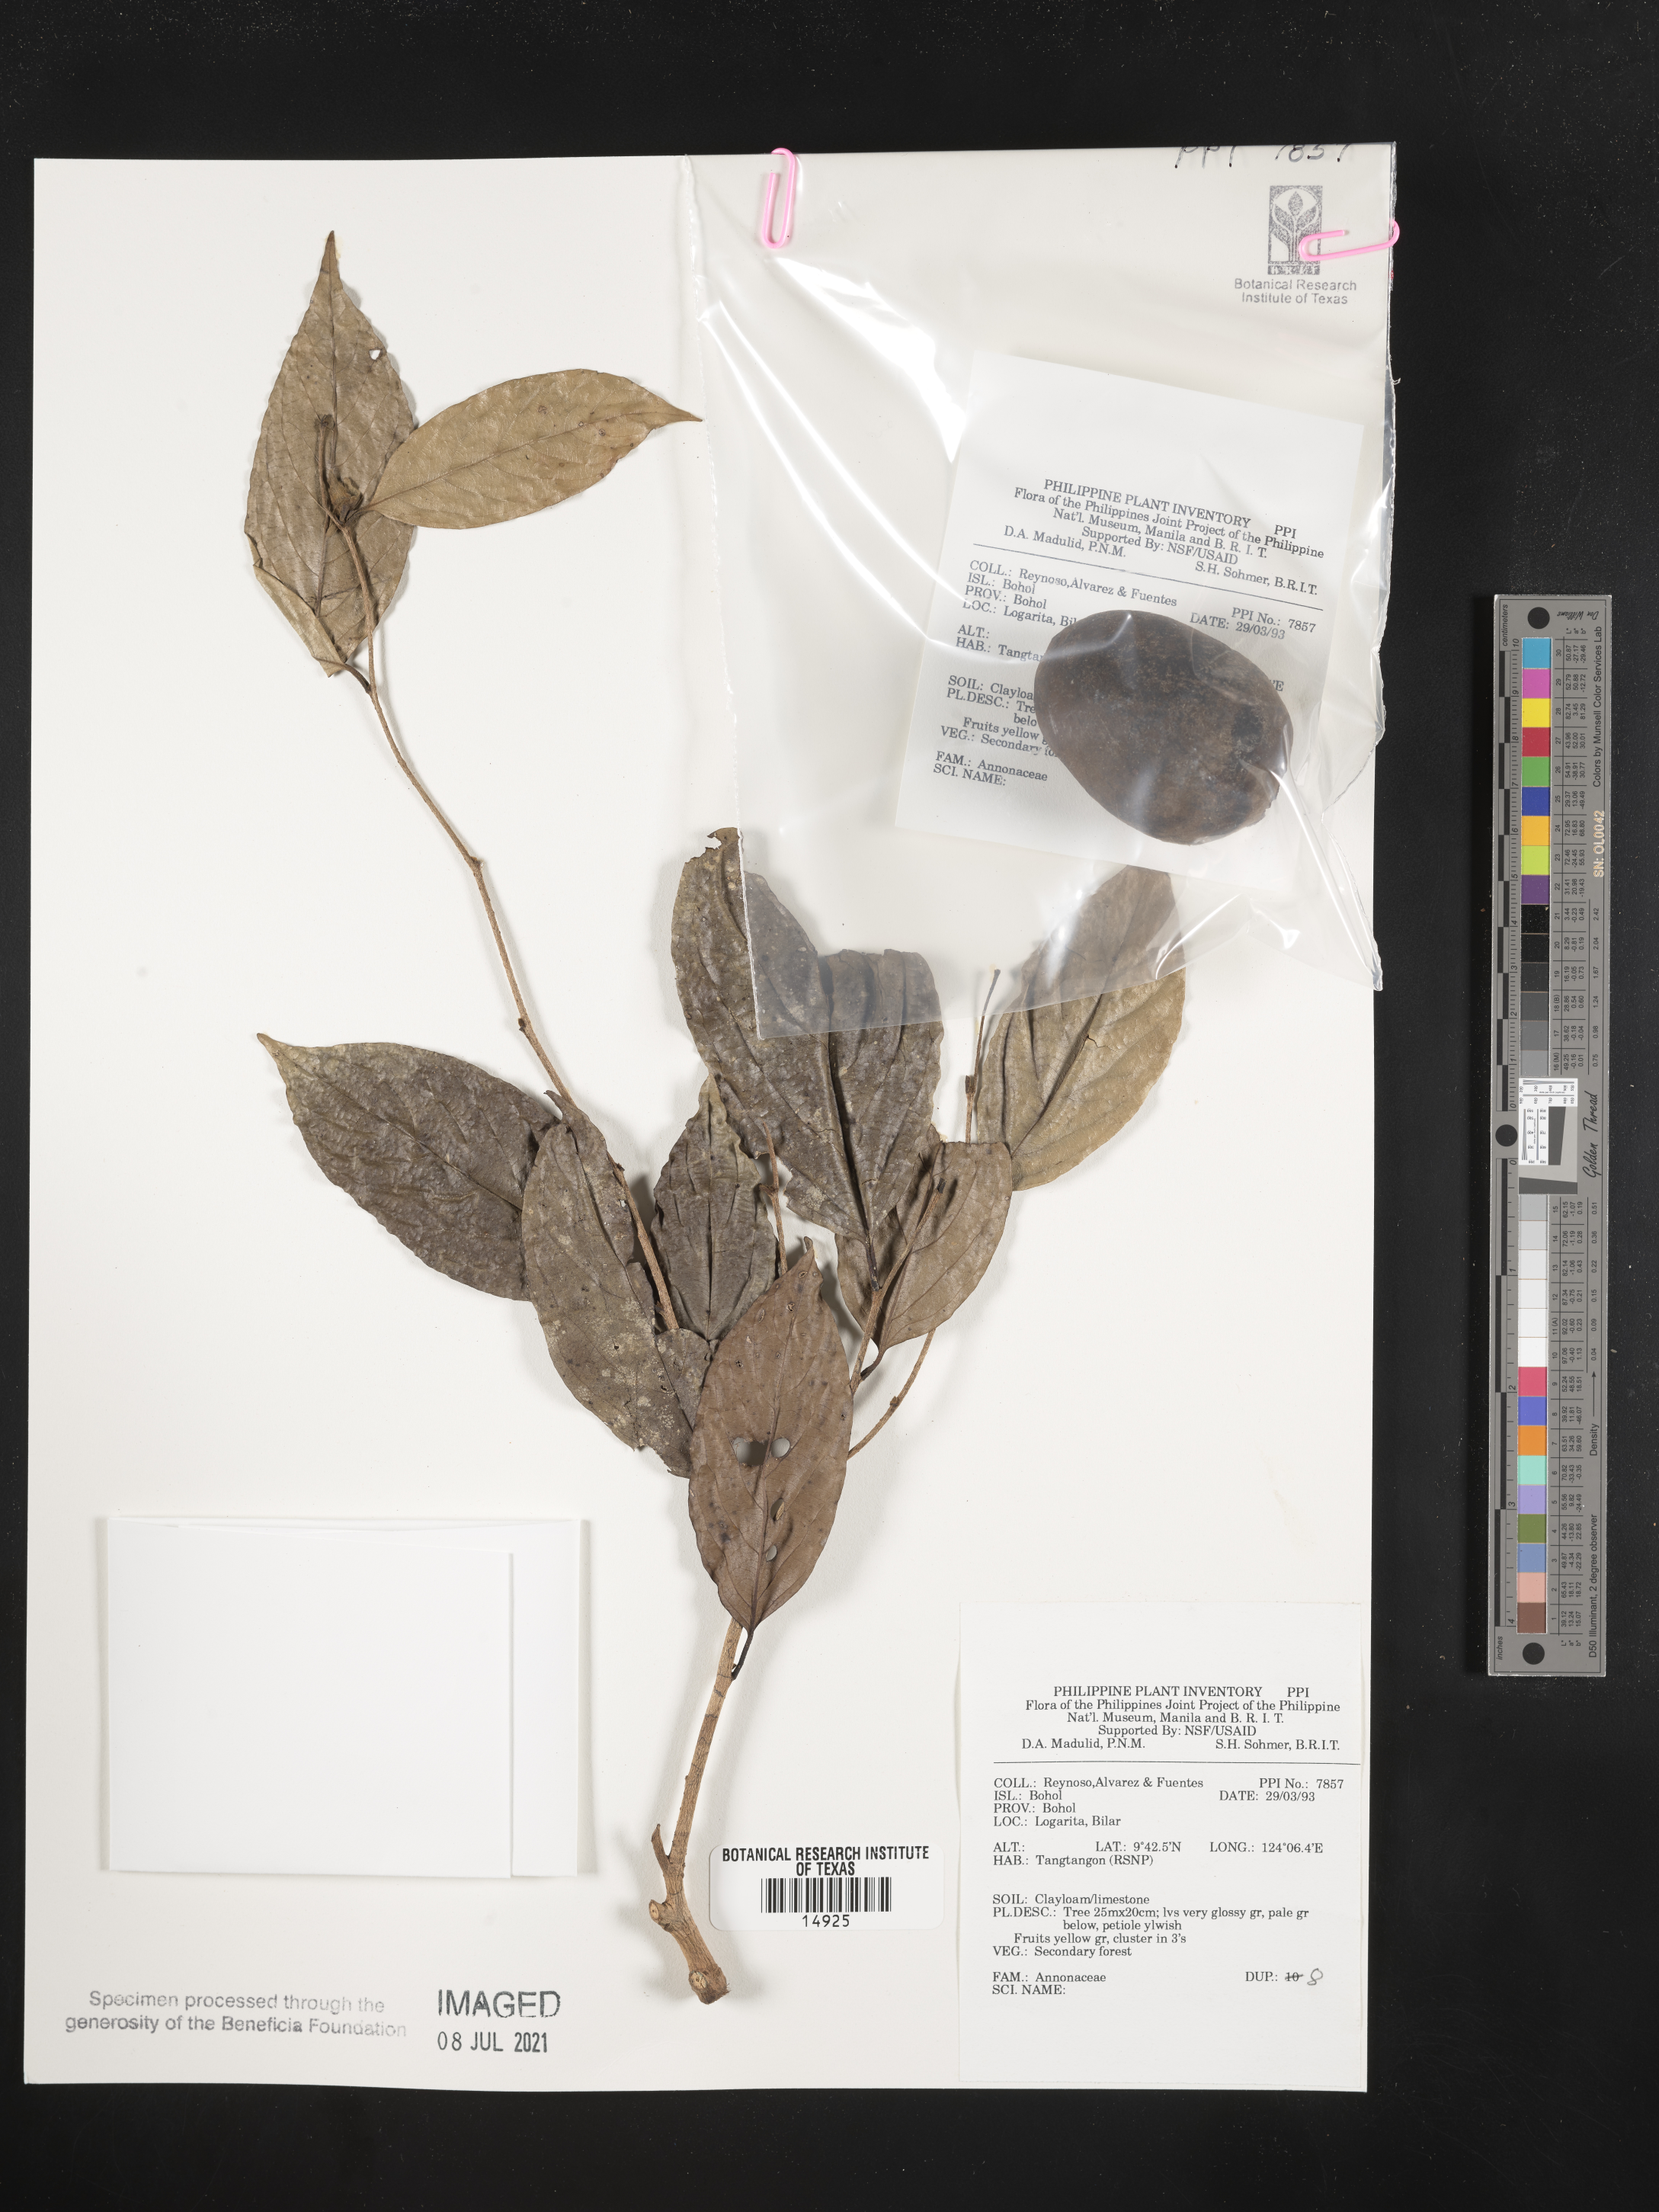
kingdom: Plantae
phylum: Tracheophyta
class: Magnoliopsida
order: Magnoliales
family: Annonaceae
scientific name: Annonaceae
